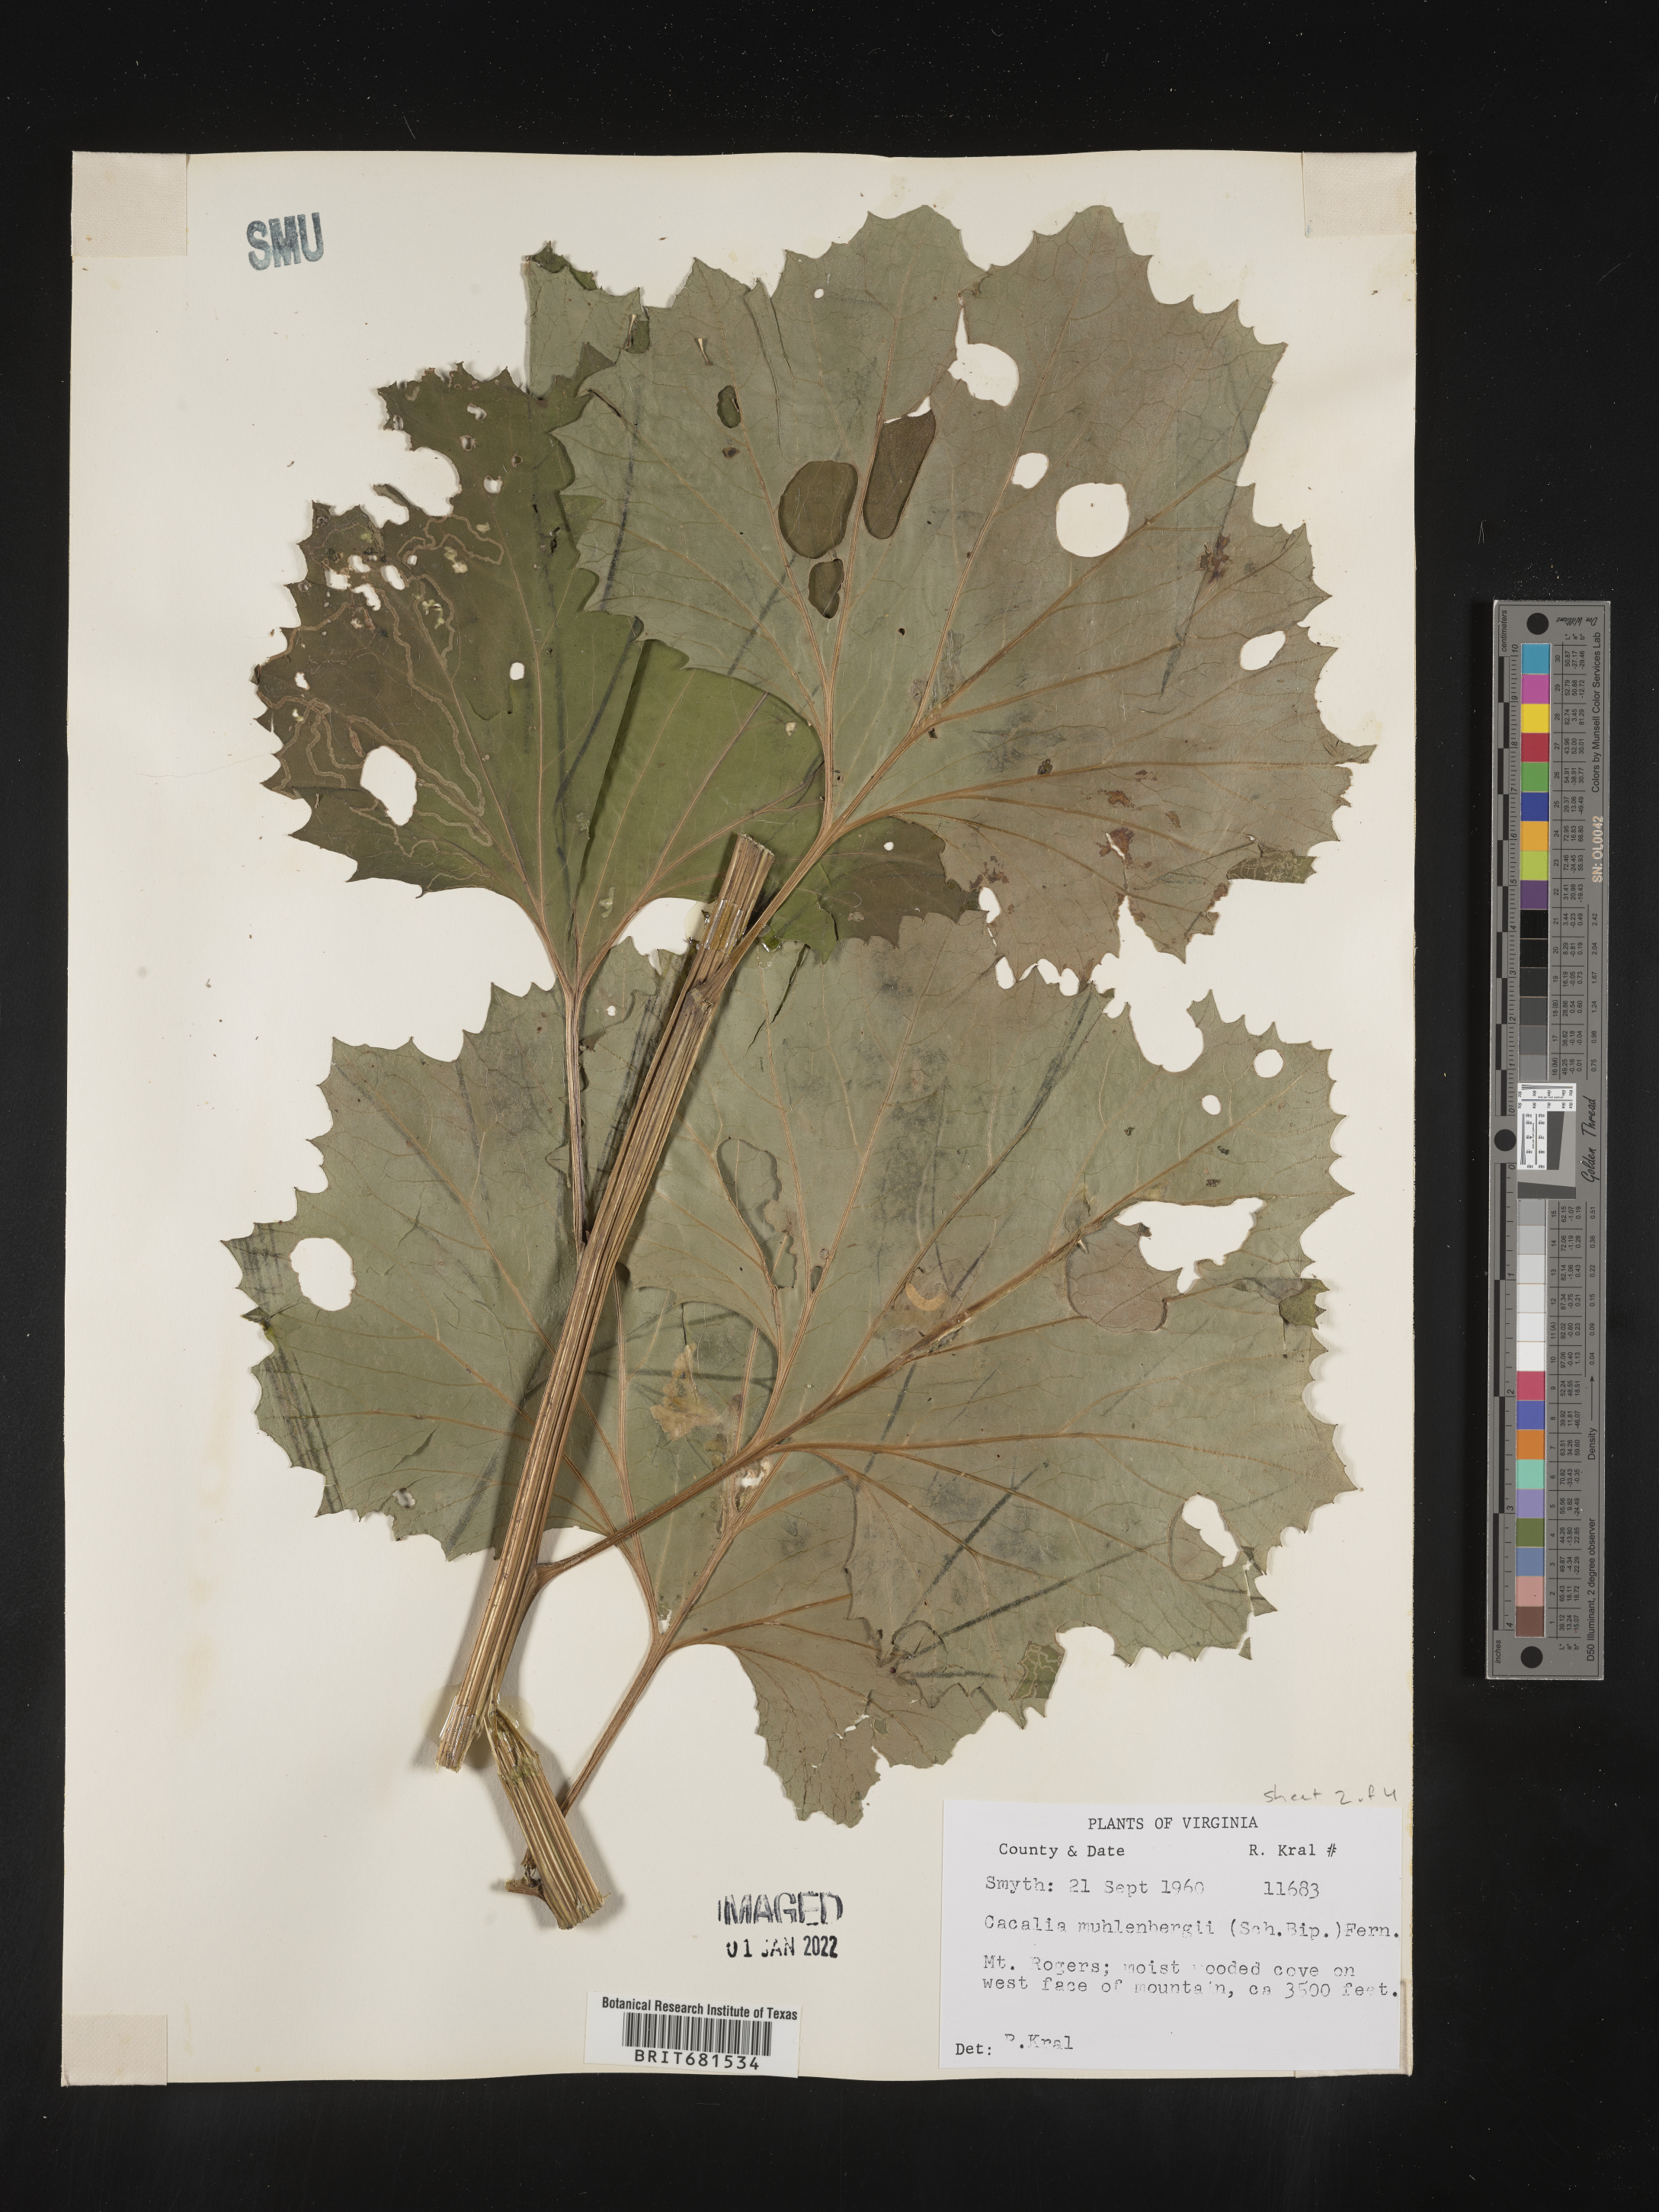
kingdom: Plantae
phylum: Tracheophyta
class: Magnoliopsida
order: Asterales
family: Asteraceae
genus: Arnoglossum
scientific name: Arnoglossum reniforme
